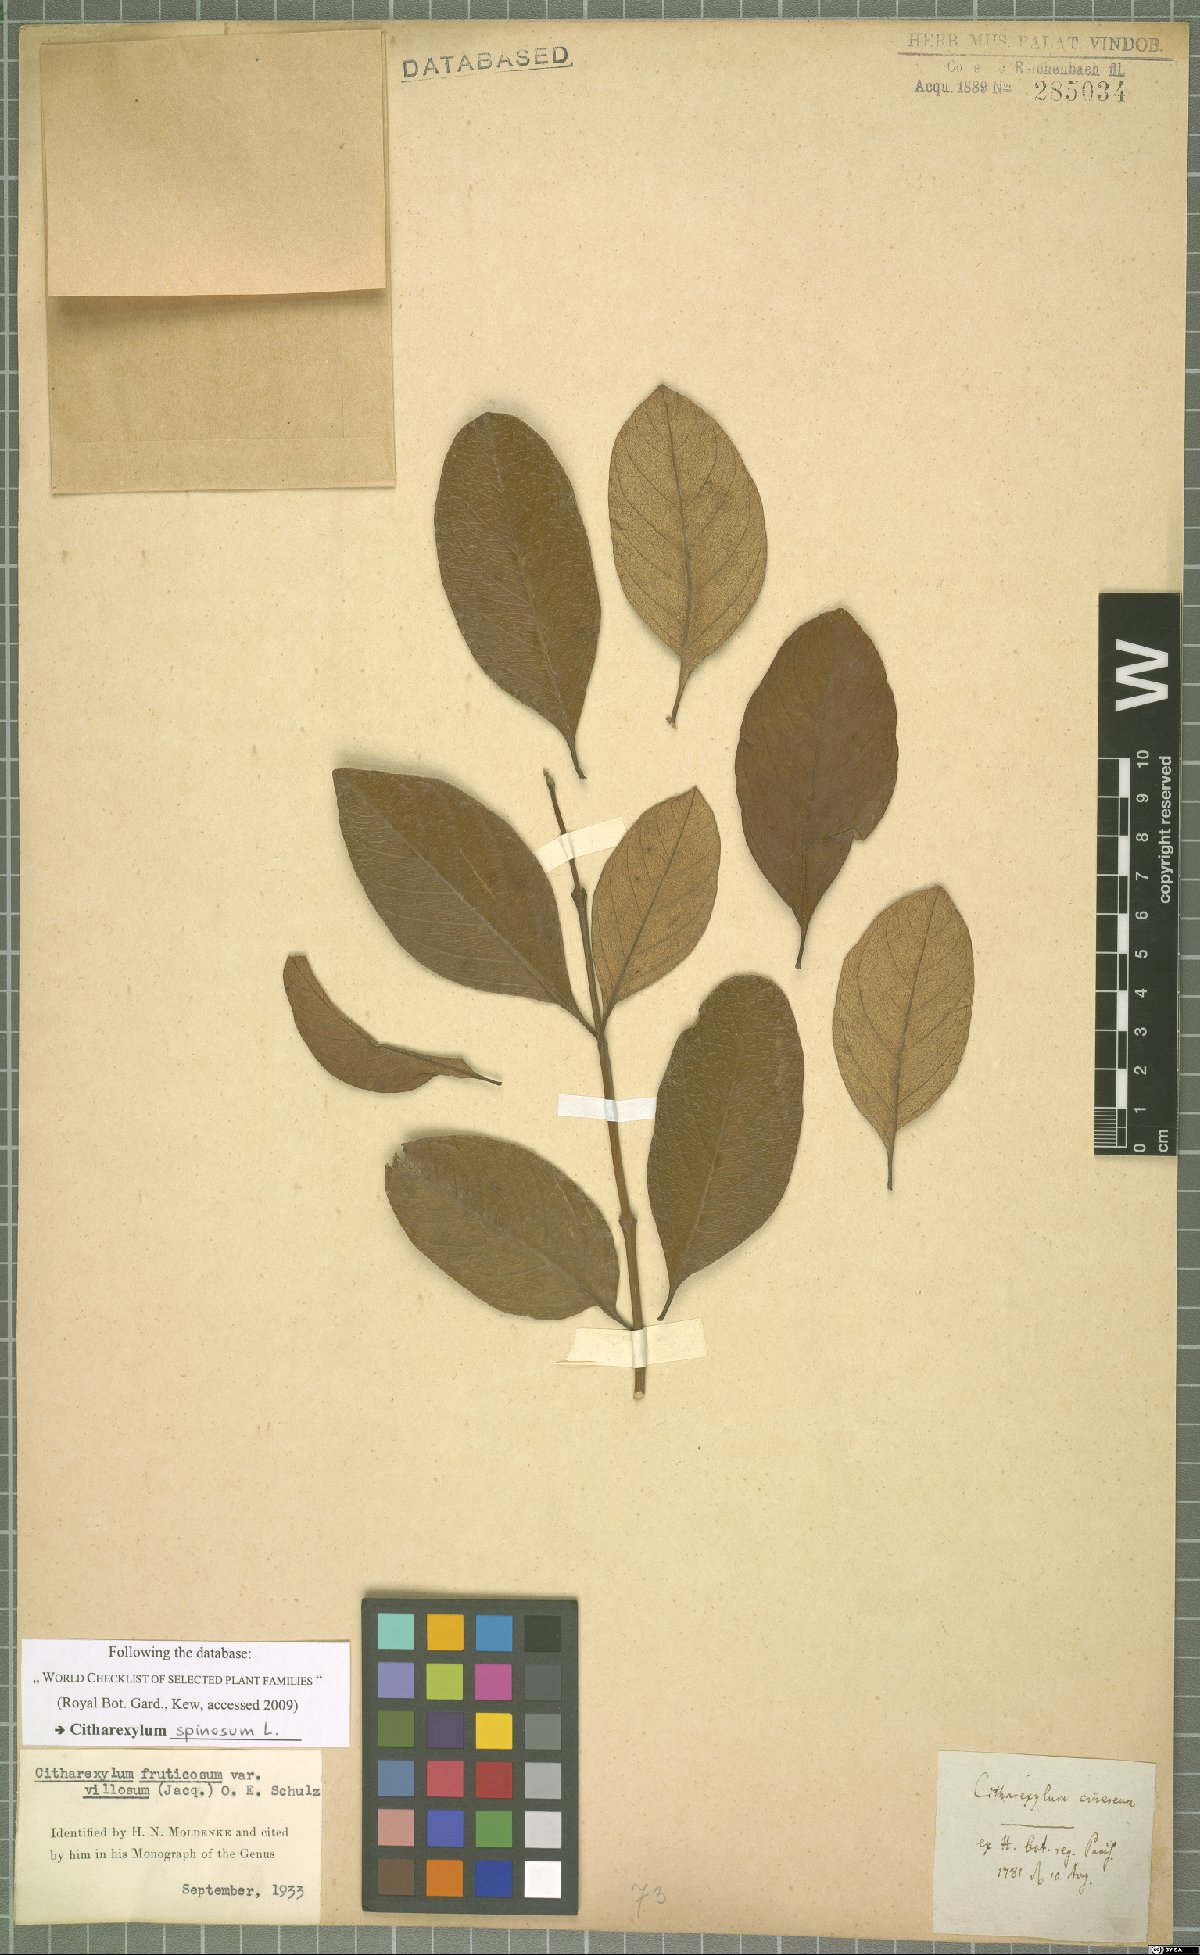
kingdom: Plantae
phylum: Tracheophyta
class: Magnoliopsida
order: Lamiales
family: Verbenaceae
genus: Citharexylum
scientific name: Citharexylum spinosum
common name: Fiddlewood
